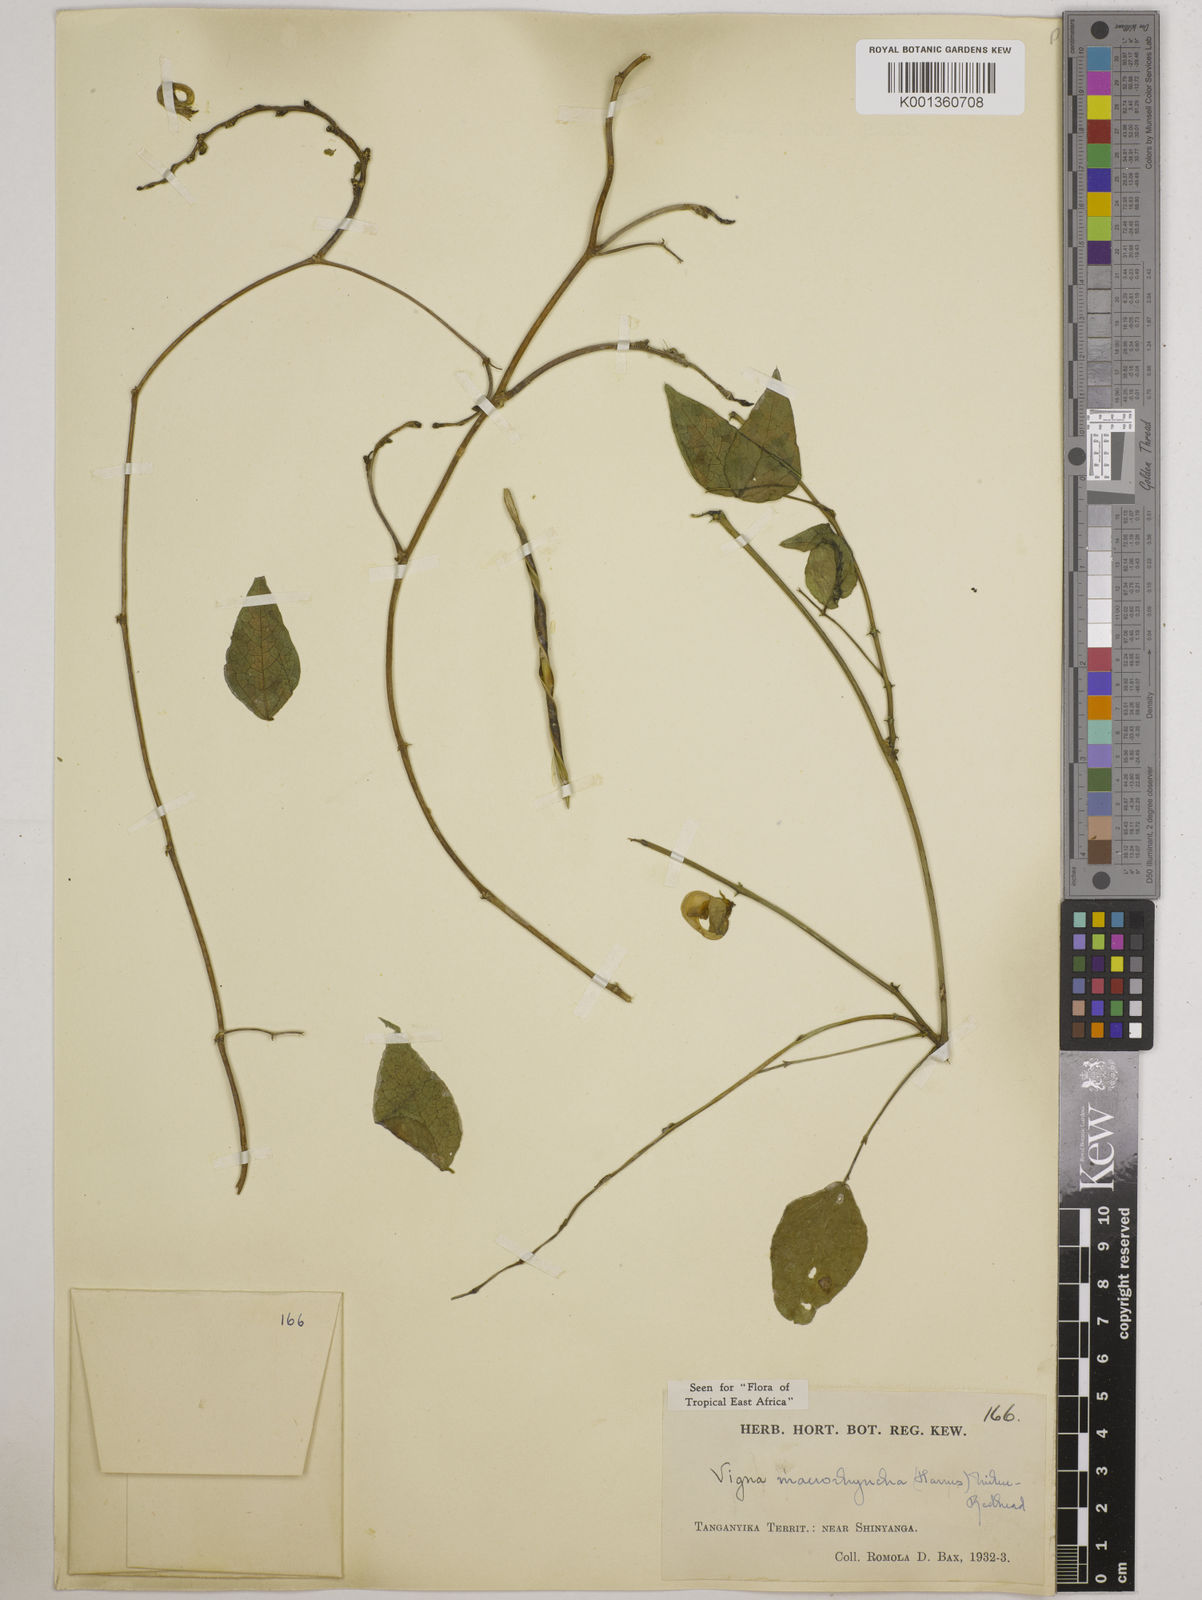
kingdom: Plantae
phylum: Tracheophyta
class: Magnoliopsida
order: Fabales
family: Fabaceae
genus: Wajira
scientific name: Wajira grahamiana
